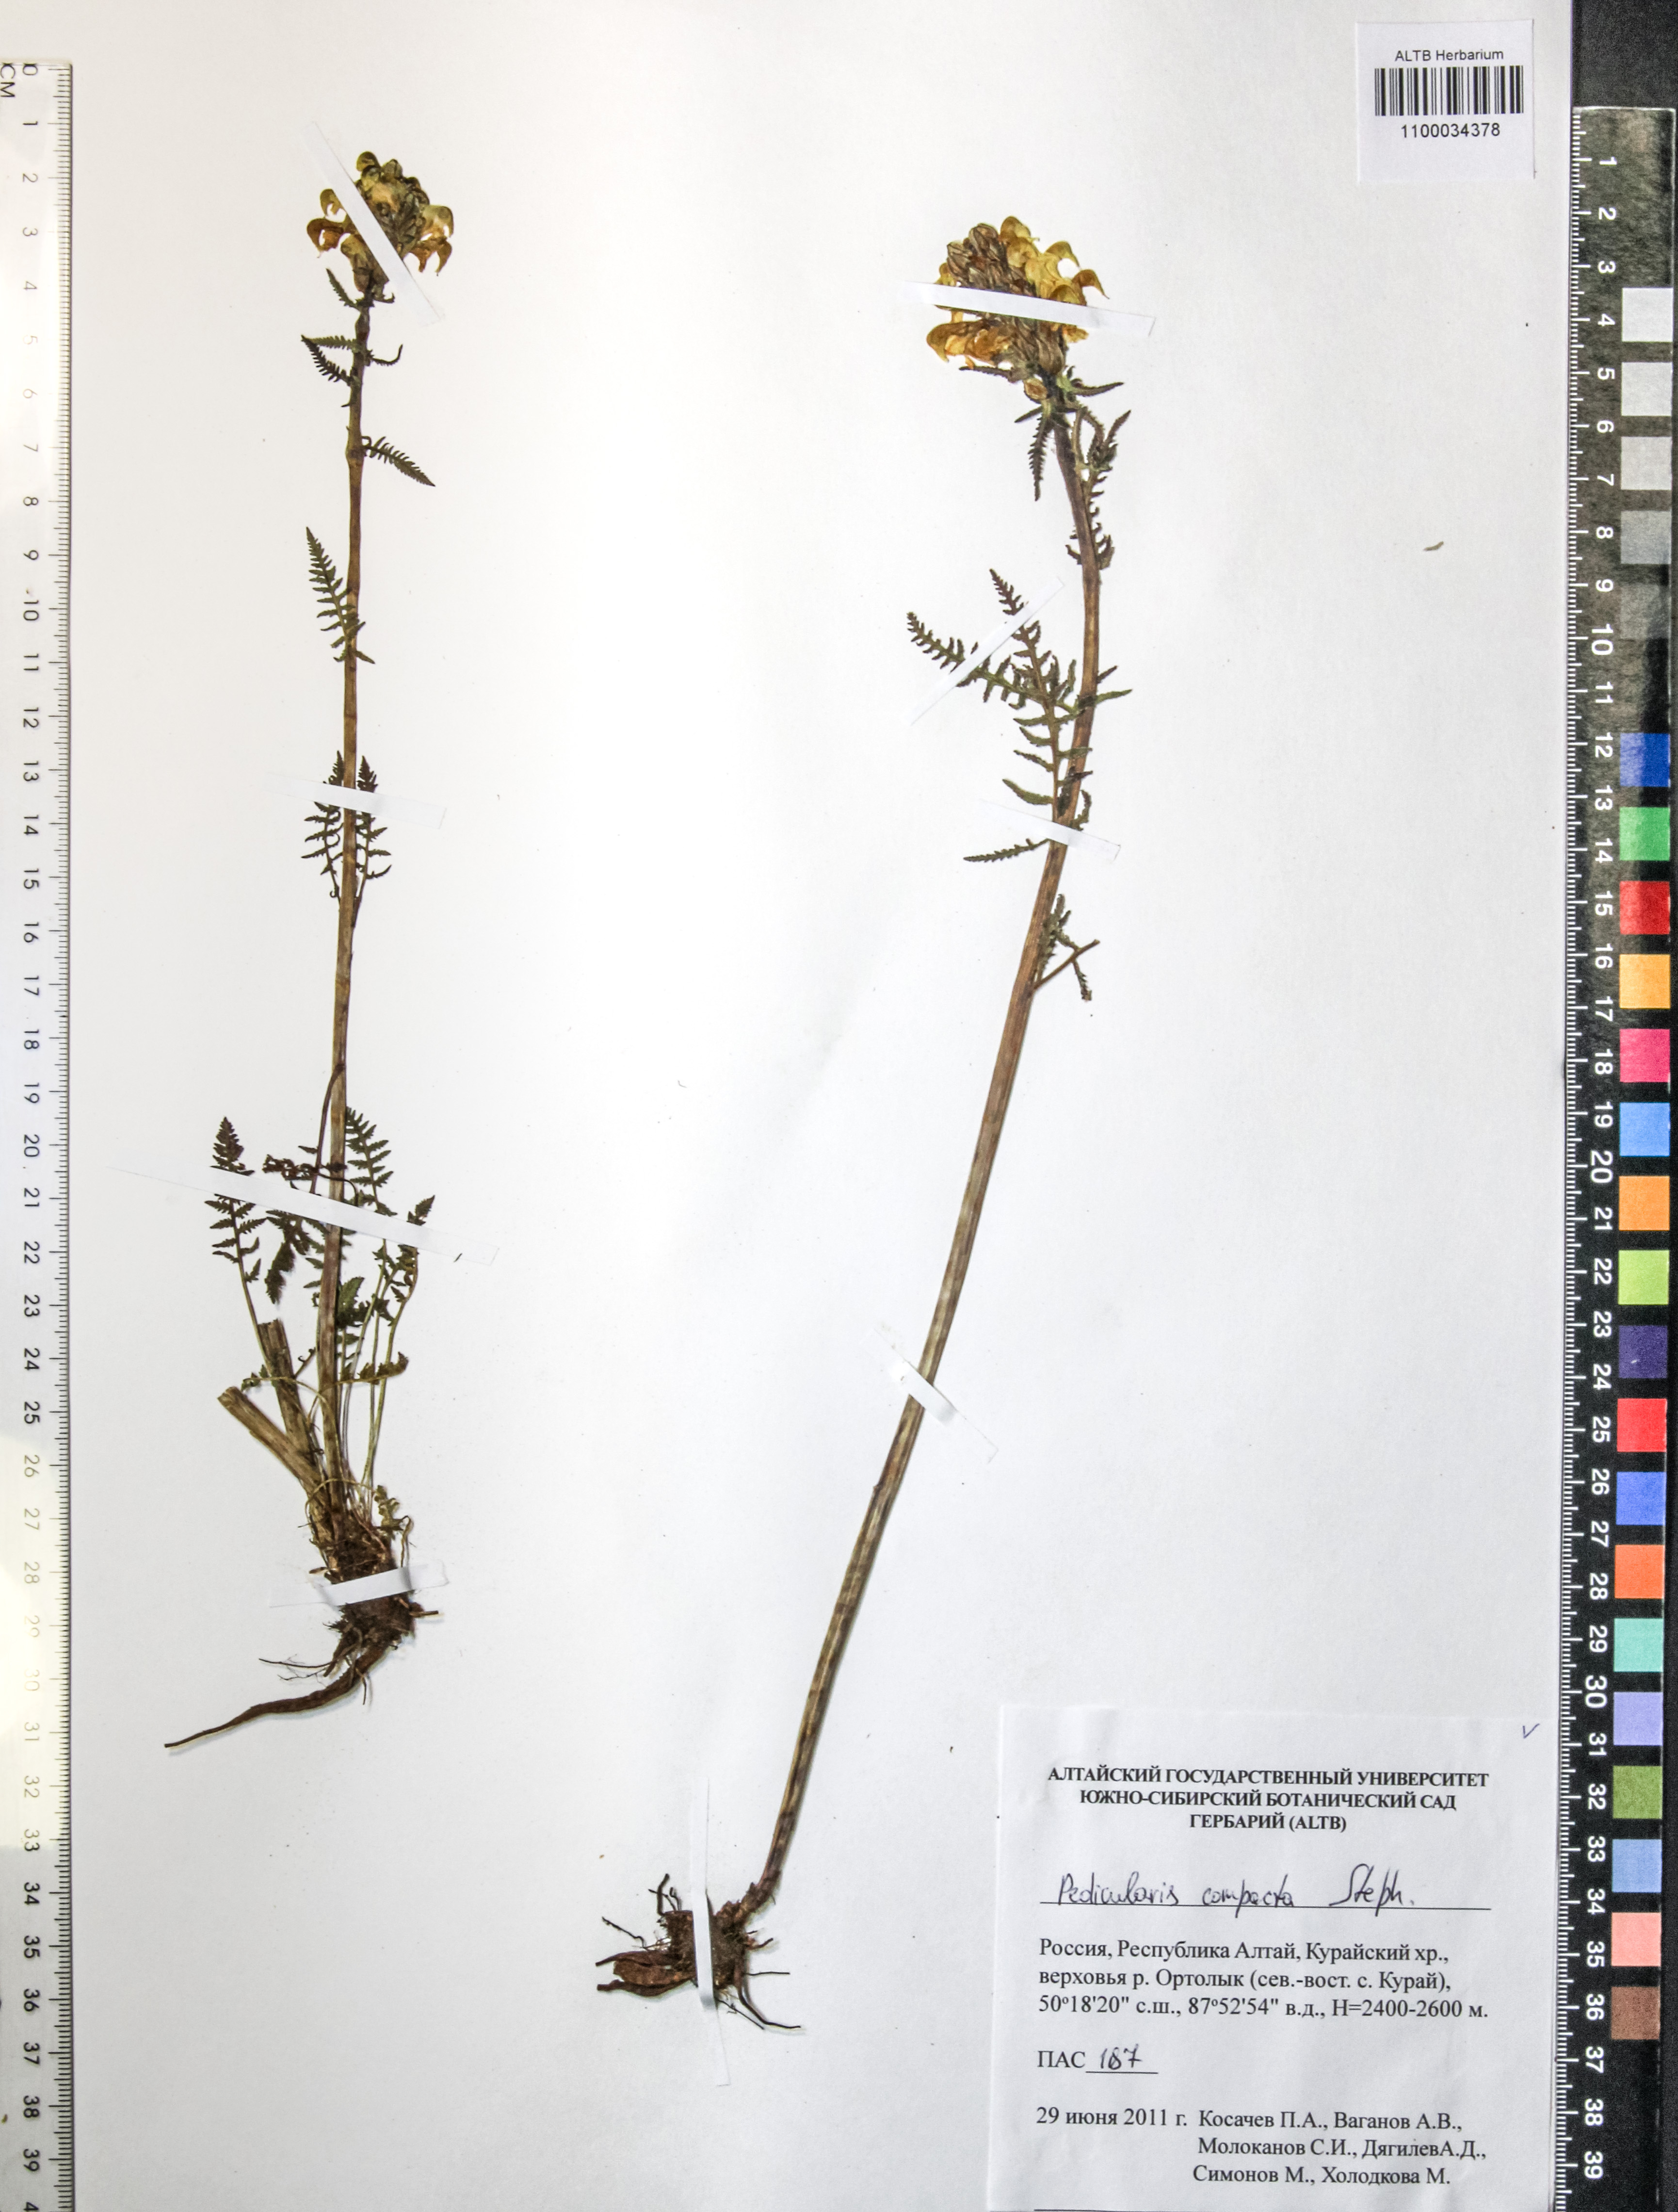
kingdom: Plantae
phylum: Tracheophyta
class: Magnoliopsida
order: Lamiales
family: Orobanchaceae
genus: Pedicularis
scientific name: Pedicularis compacta
